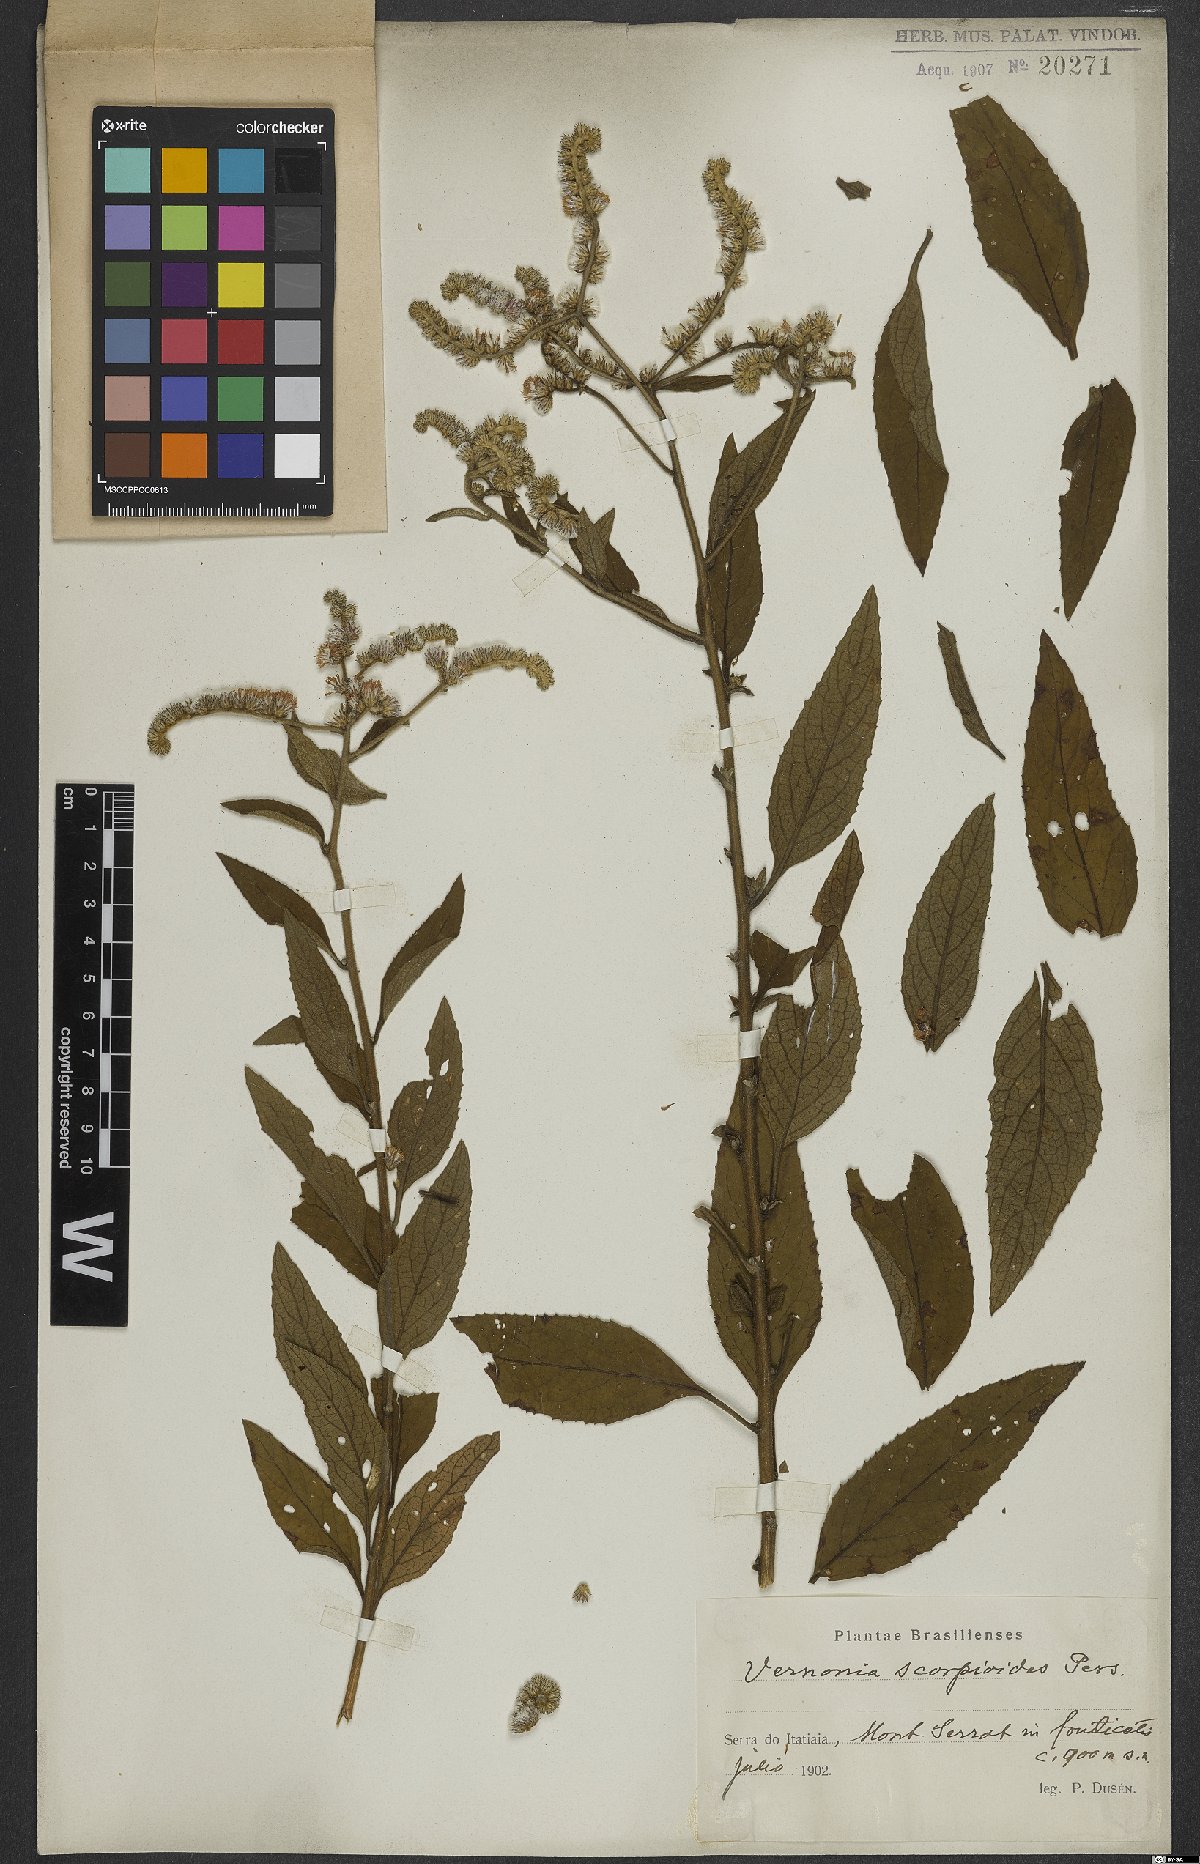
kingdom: Plantae
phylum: Tracheophyta
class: Magnoliopsida
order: Asterales
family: Asteraceae
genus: Cyrtocymura
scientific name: Cyrtocymura scorpioides
